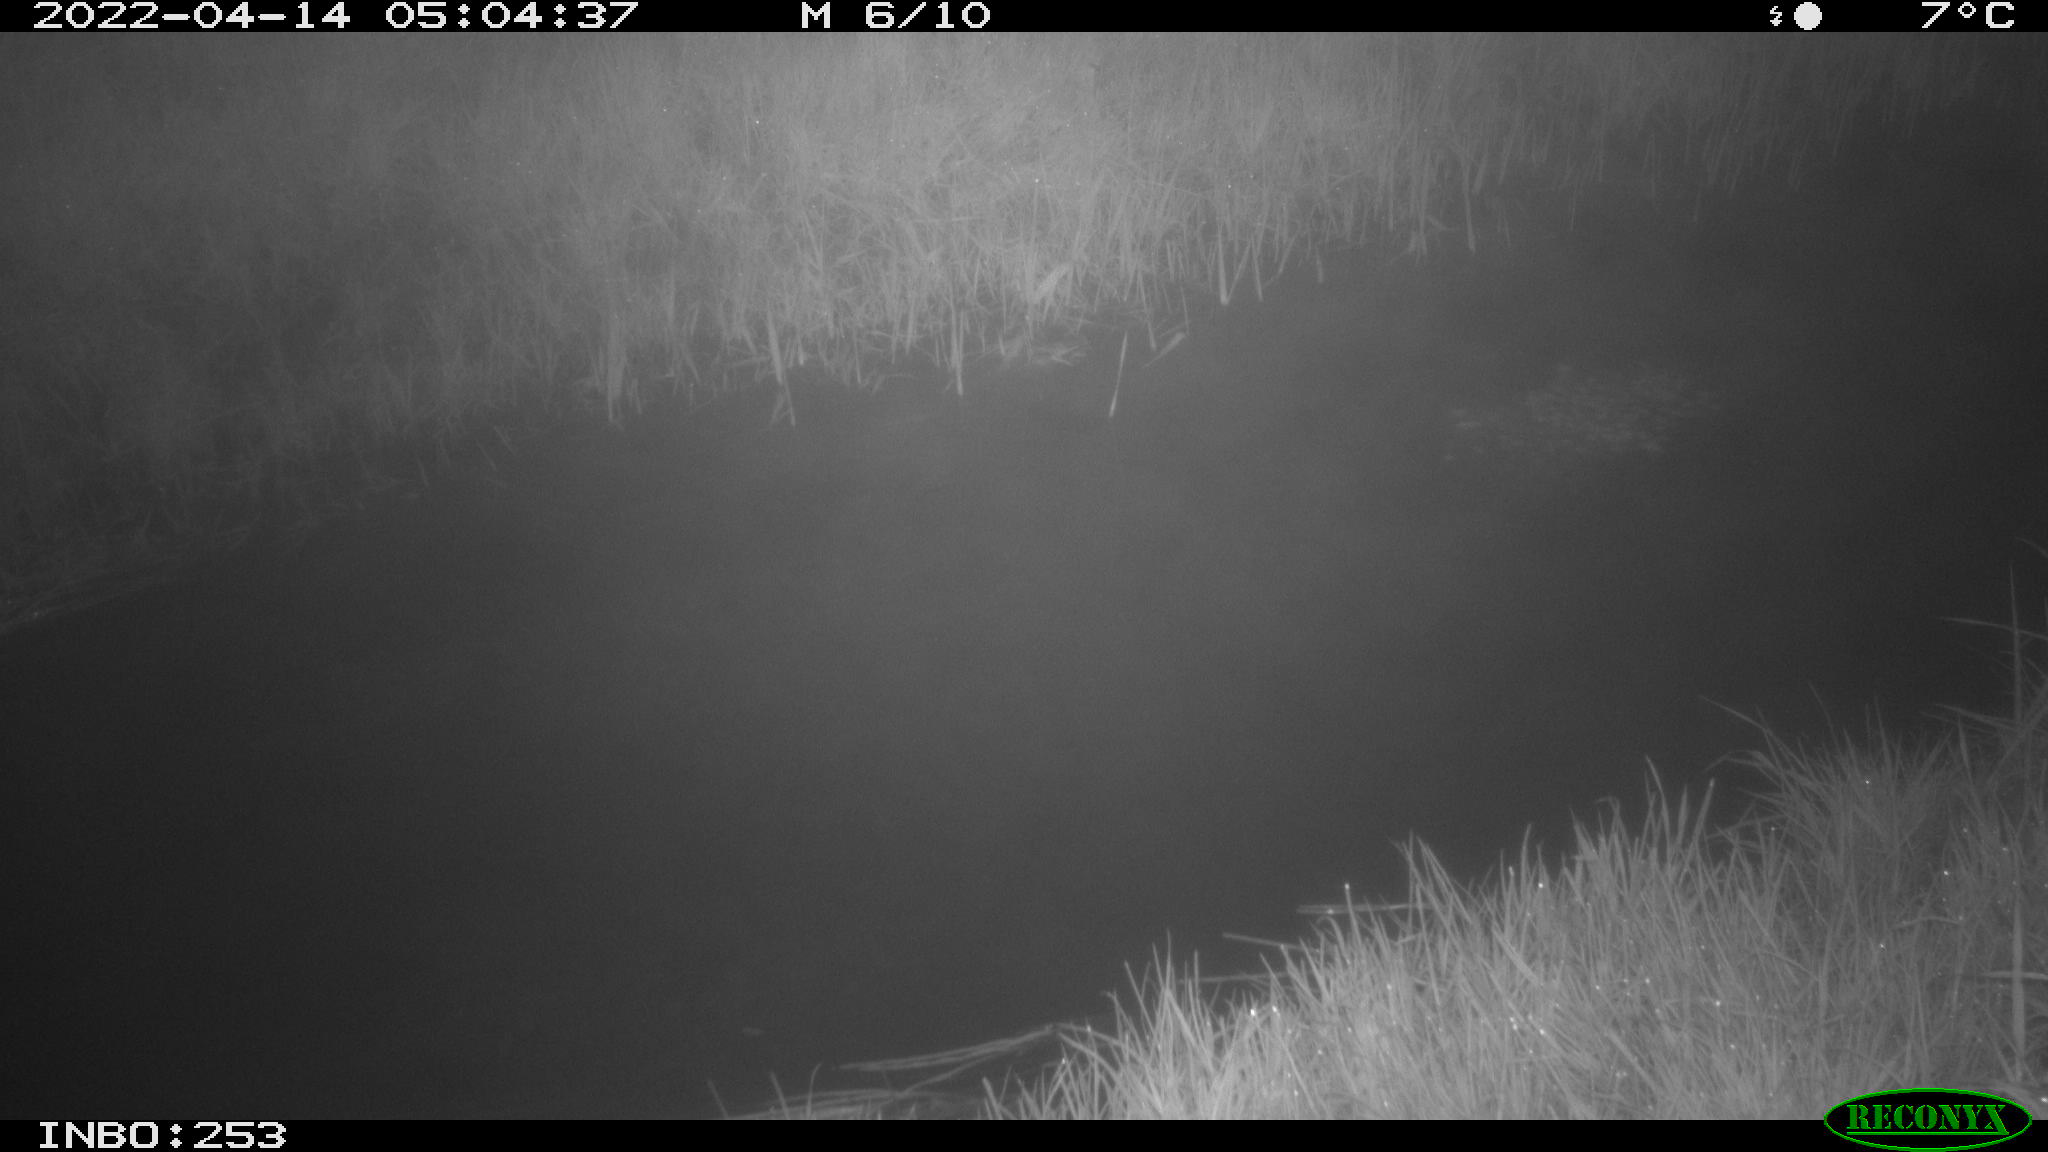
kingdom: Animalia
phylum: Chordata
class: Aves
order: Anseriformes
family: Anatidae
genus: Anas
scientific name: Anas platyrhynchos
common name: Mallard
